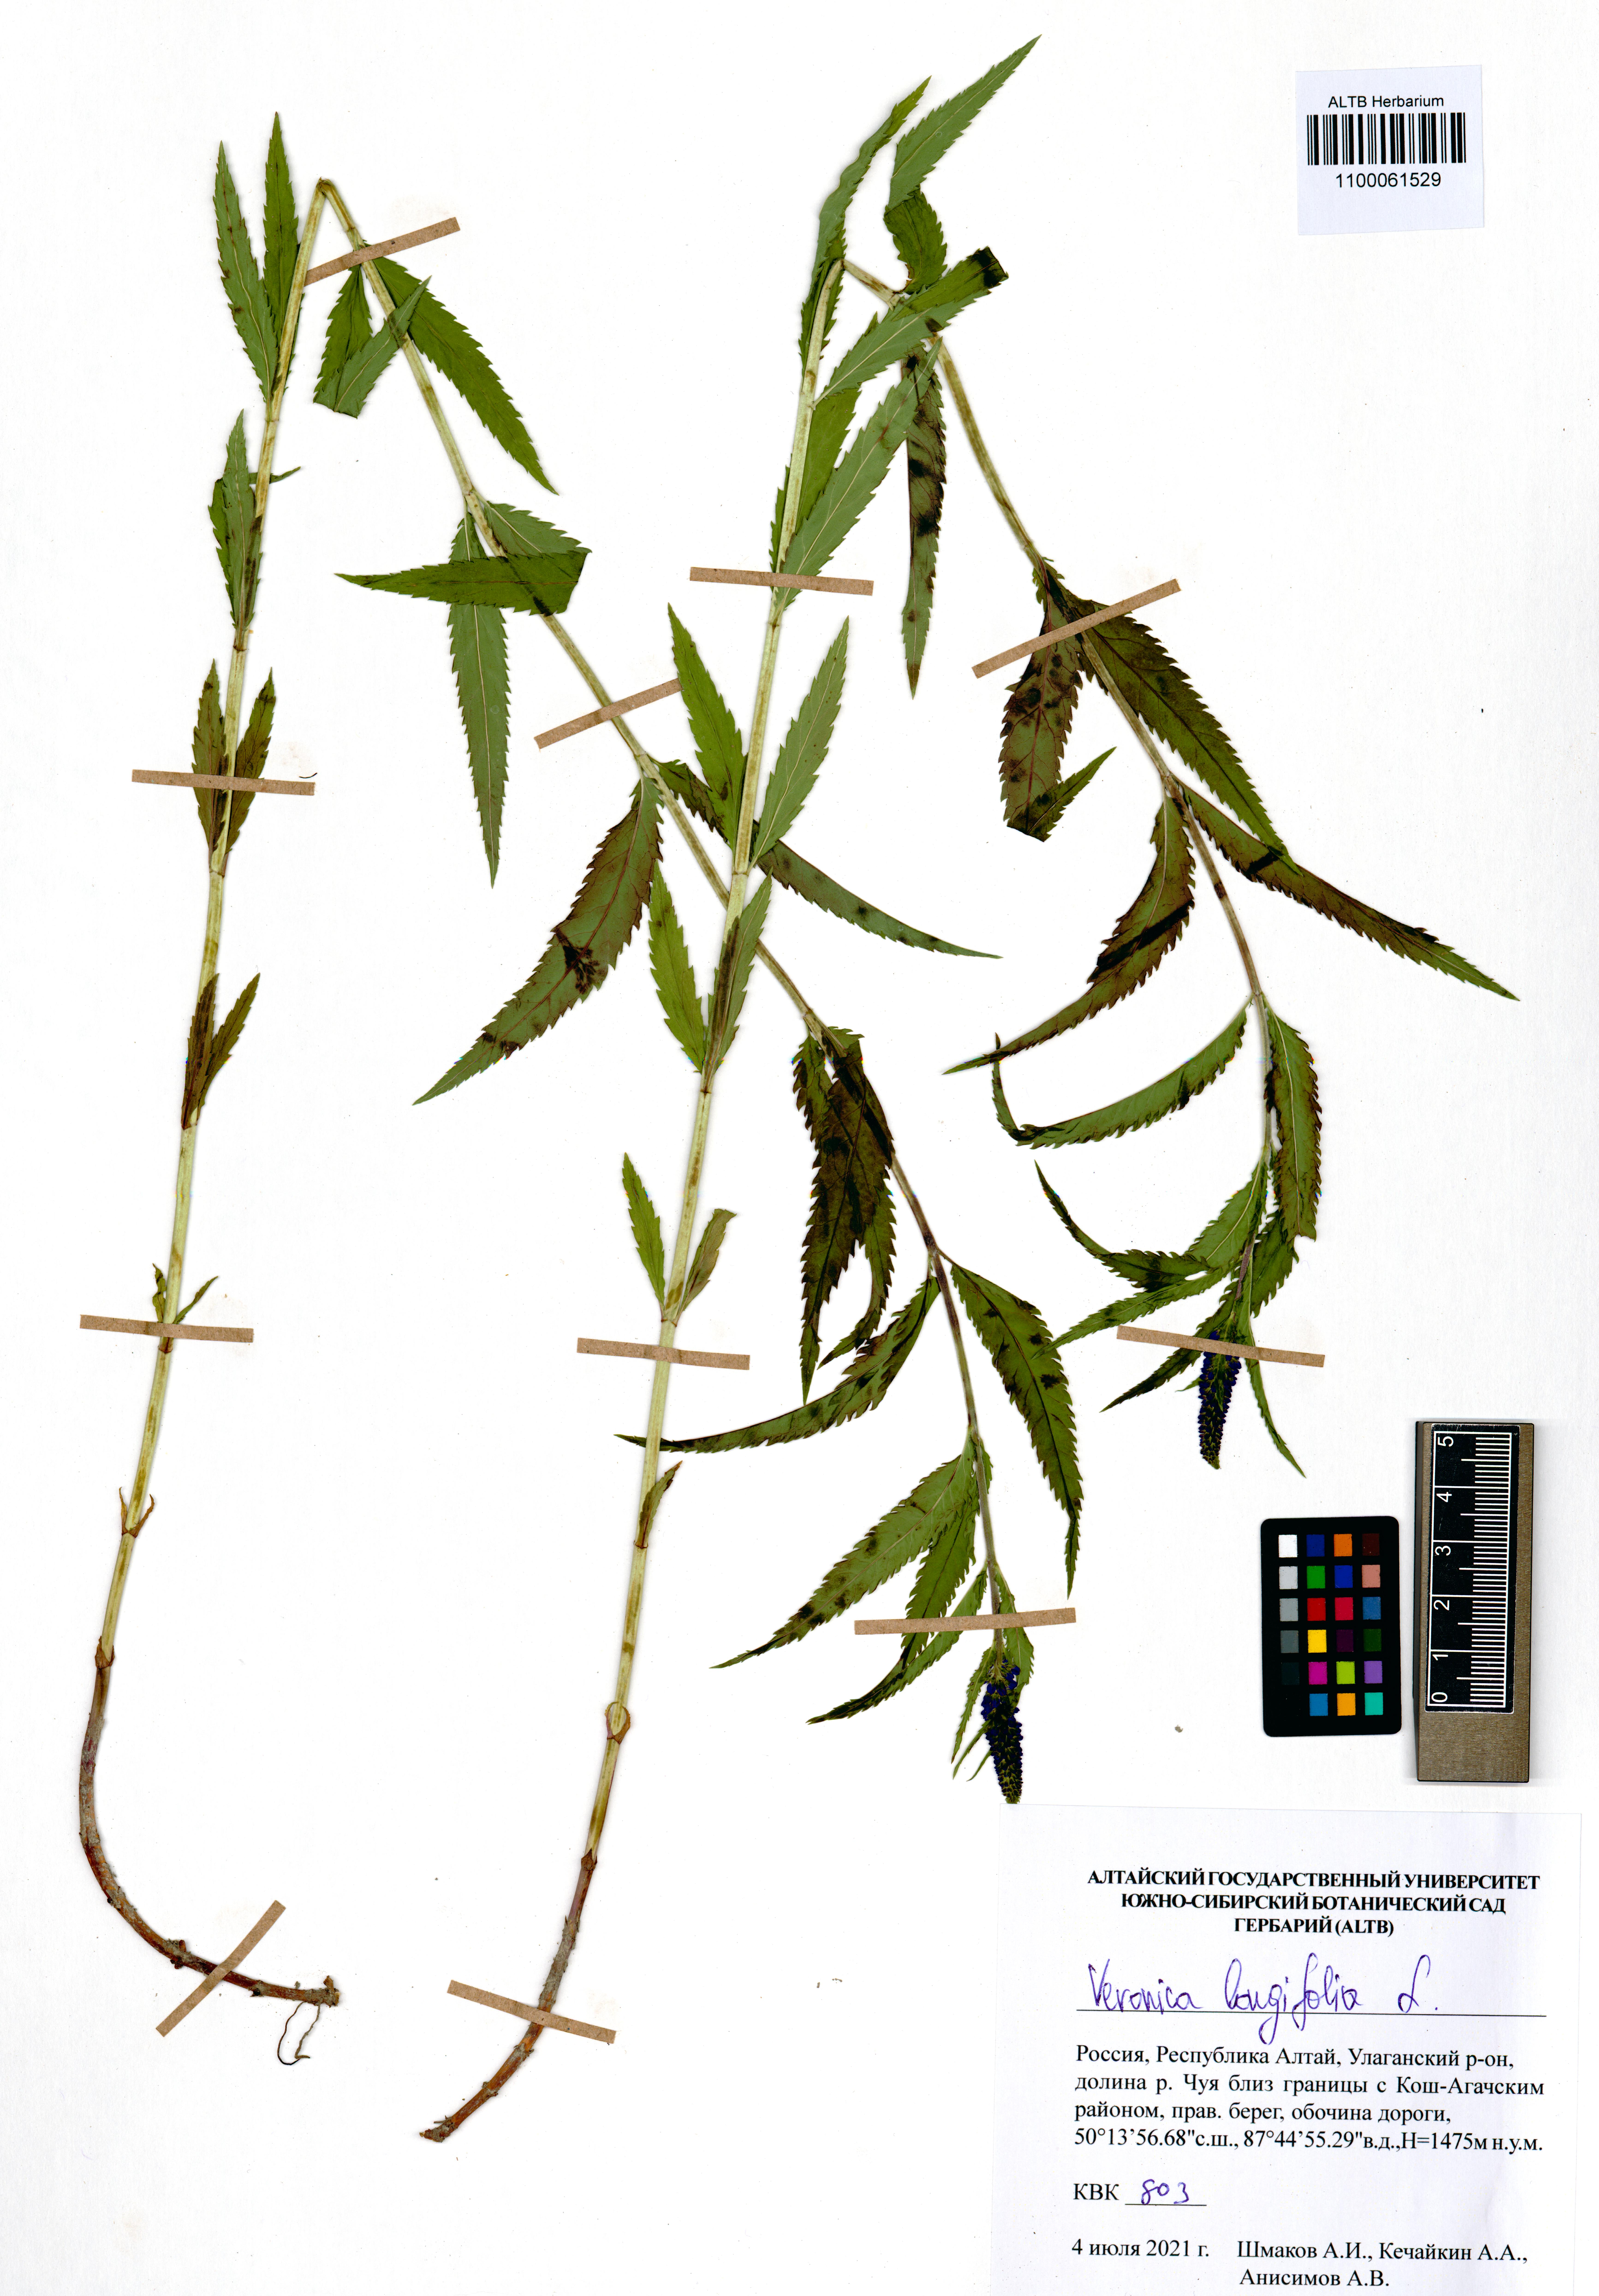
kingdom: Plantae
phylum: Tracheophyta
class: Magnoliopsida
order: Lamiales
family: Plantaginaceae
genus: Veronica
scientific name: Veronica longifolia
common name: Garden speedwell
